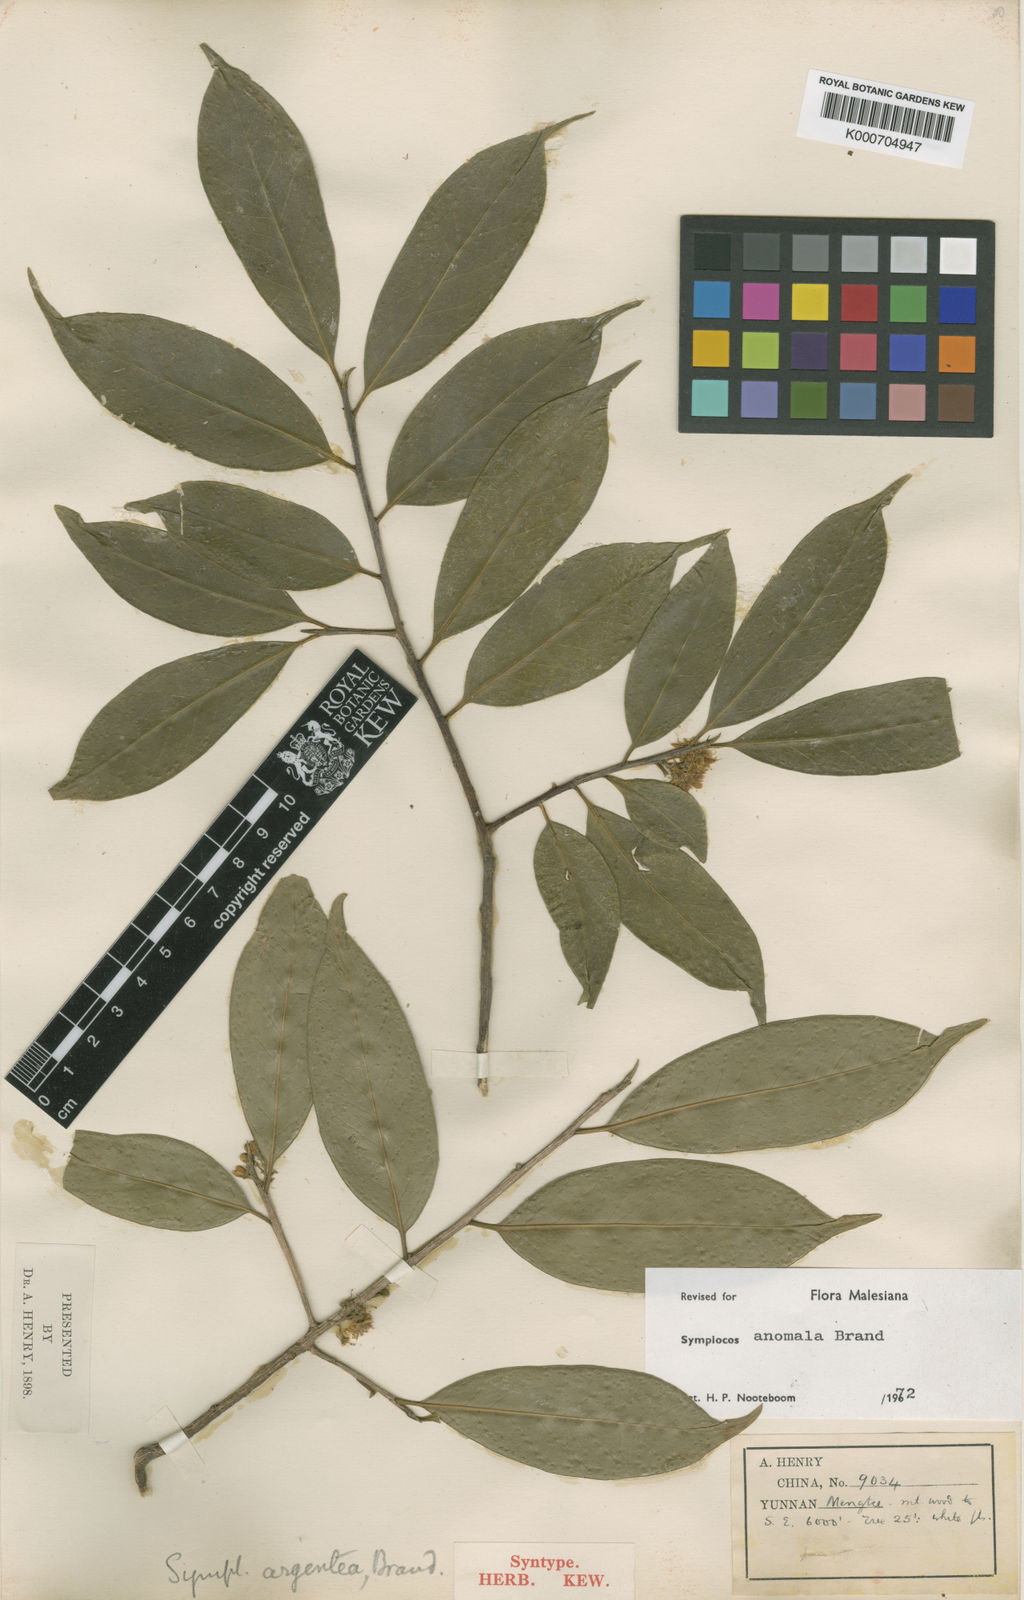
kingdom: Plantae
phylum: Tracheophyta
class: Magnoliopsida
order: Ericales
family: Symplocaceae
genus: Symplocos
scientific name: Symplocos anomala
